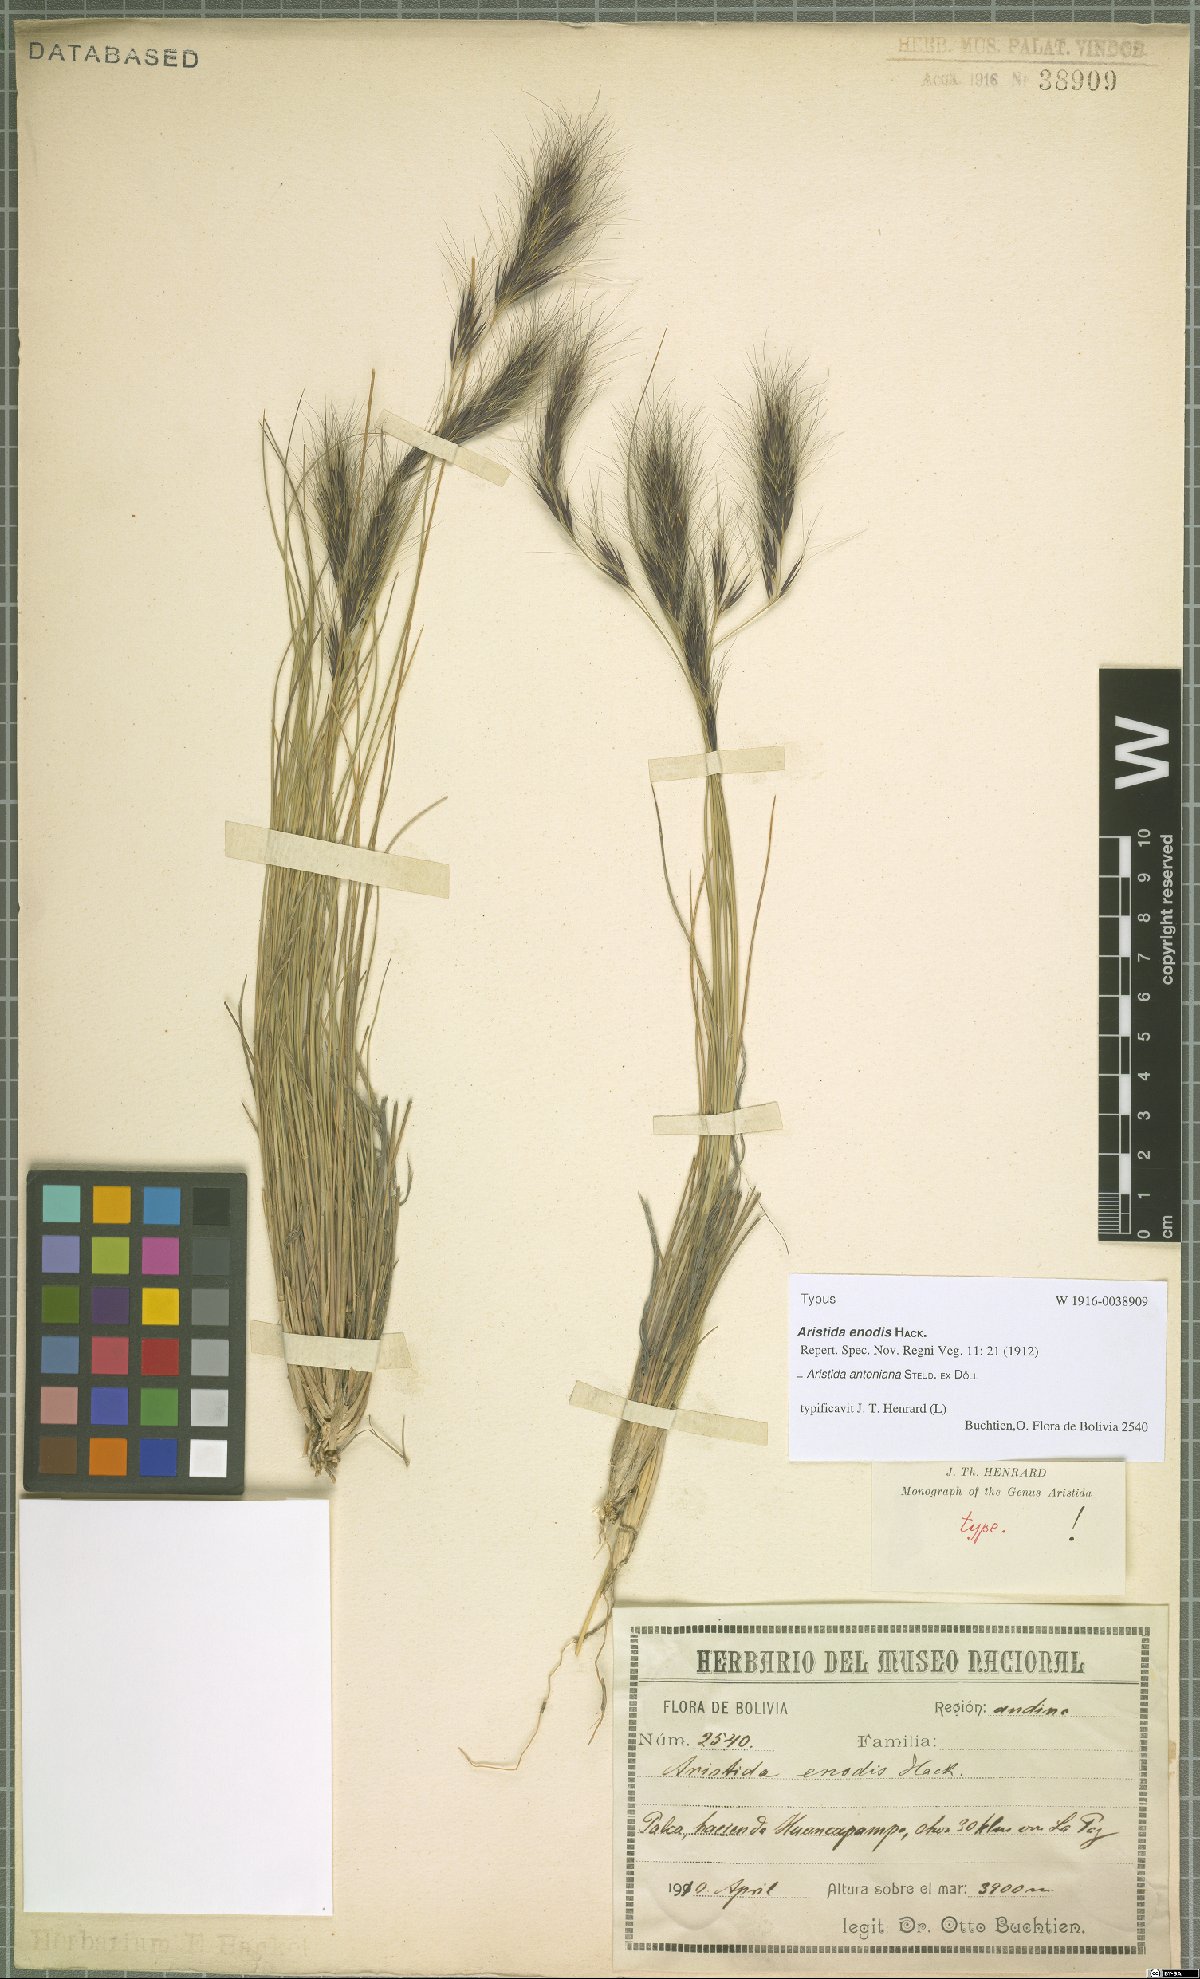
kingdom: Plantae
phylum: Tracheophyta
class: Liliopsida
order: Poales
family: Poaceae
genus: Aristida
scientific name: Aristida antoniana
